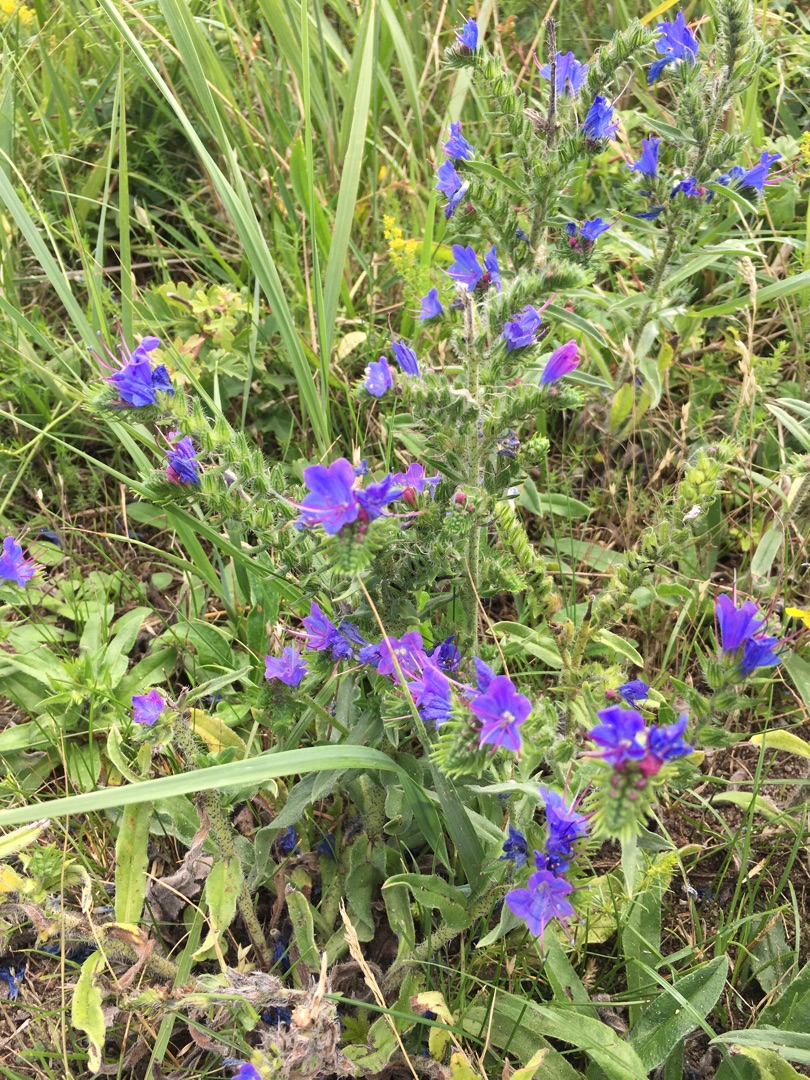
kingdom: Plantae
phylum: Tracheophyta
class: Magnoliopsida
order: Boraginales
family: Boraginaceae
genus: Echium
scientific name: Echium vulgare
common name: Slangehoved
